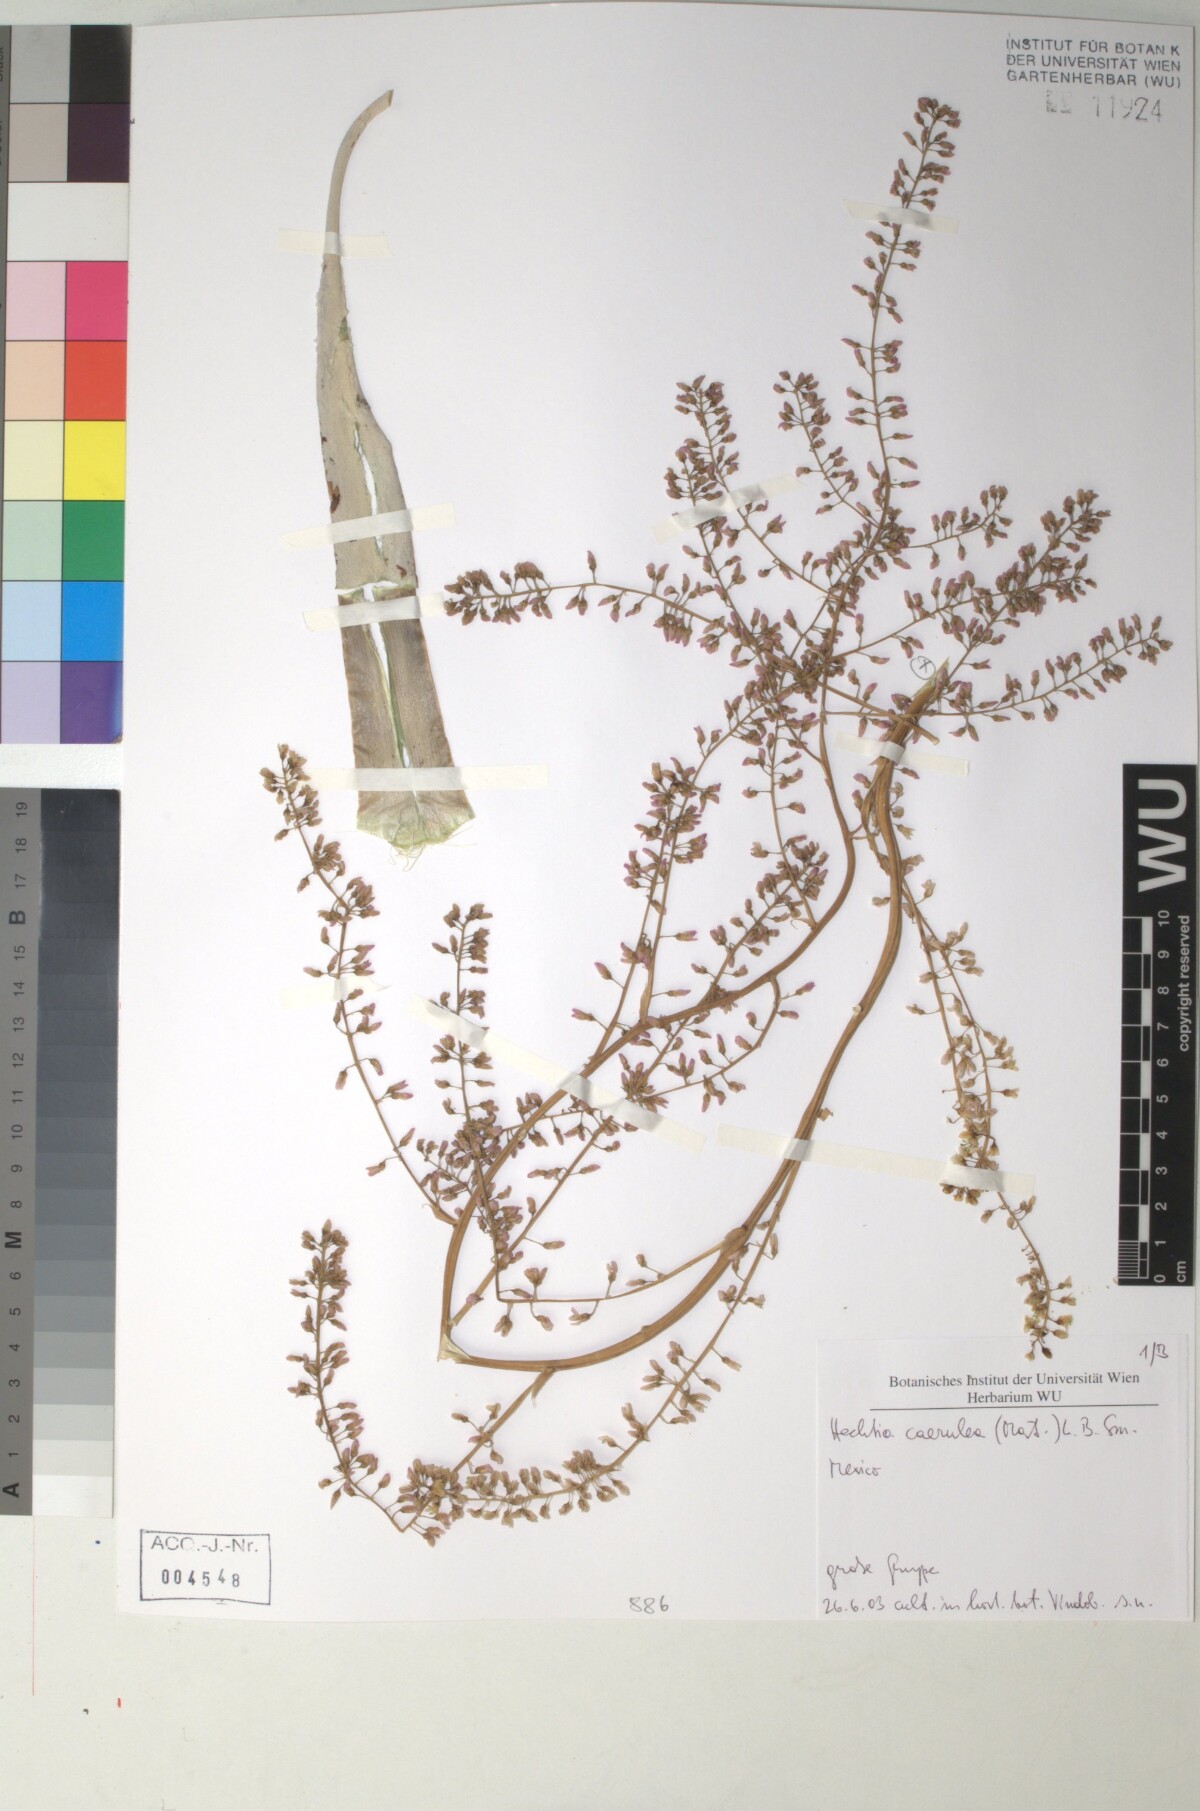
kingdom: Plantae
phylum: Tracheophyta
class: Liliopsida
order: Poales
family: Bromeliaceae
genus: Hechtia
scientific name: Hechtia
